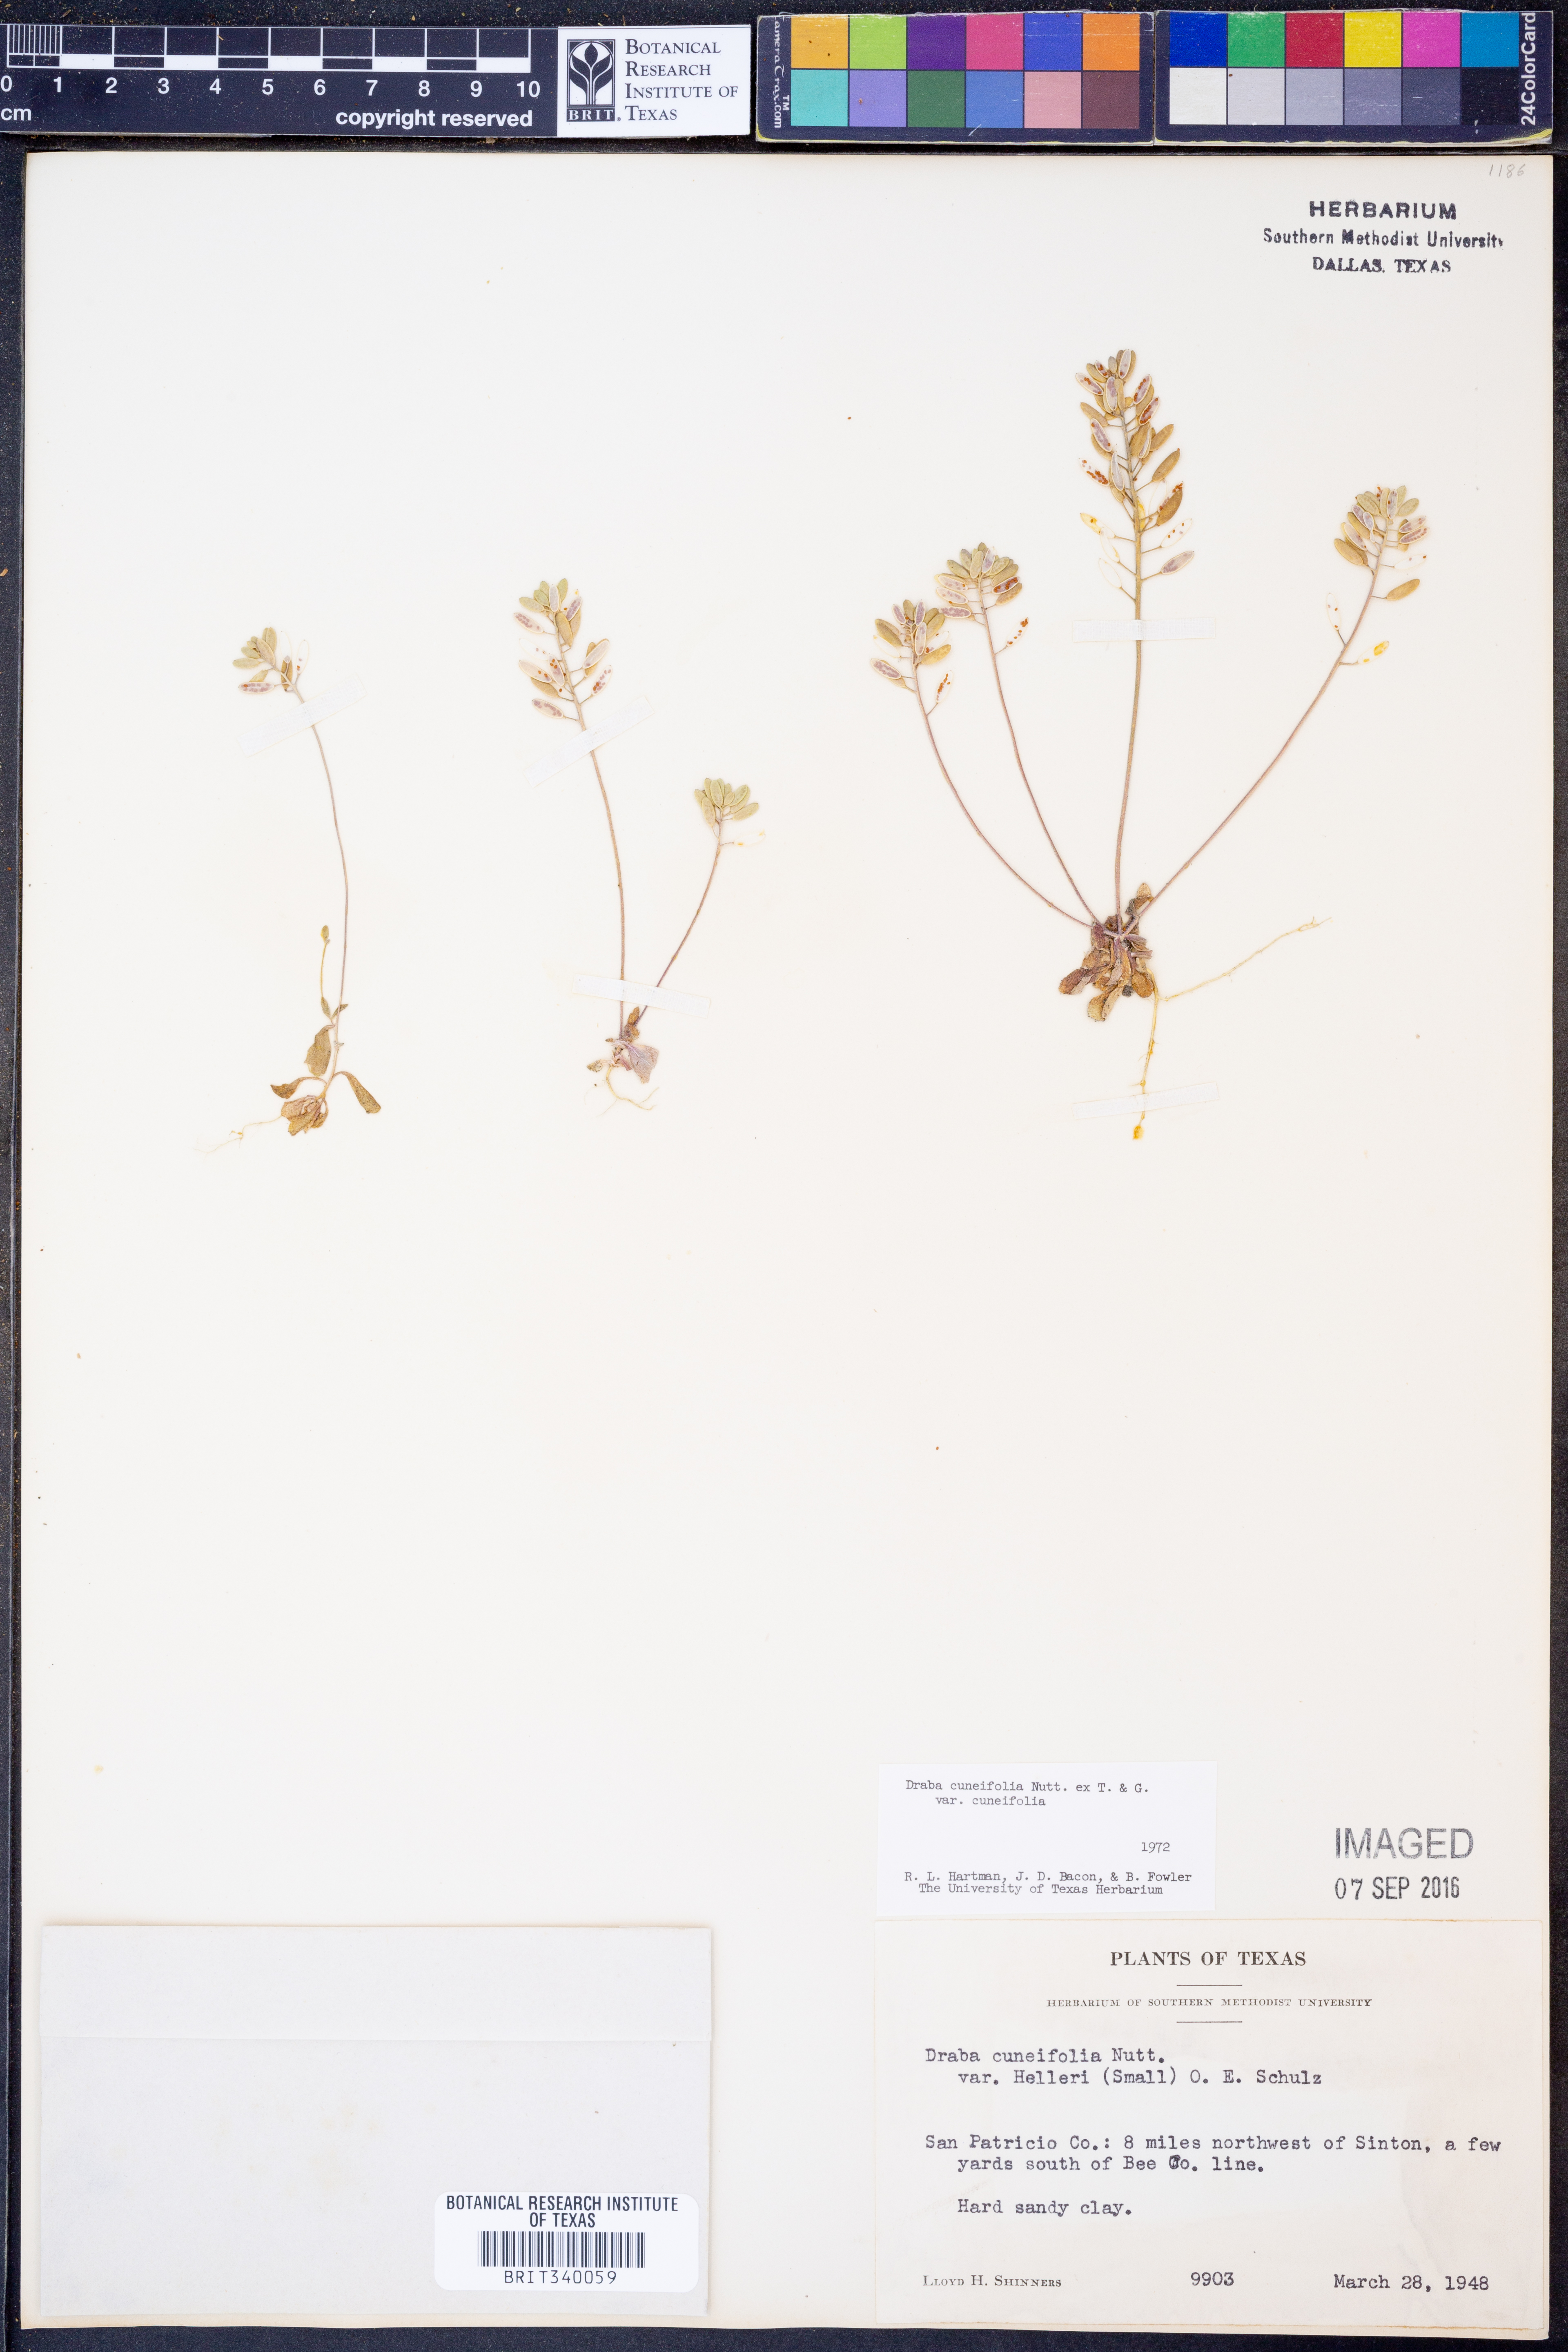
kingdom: Plantae
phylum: Tracheophyta
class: Magnoliopsida
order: Brassicales
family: Brassicaceae
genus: Tomostima
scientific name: Tomostima cuneifolia
